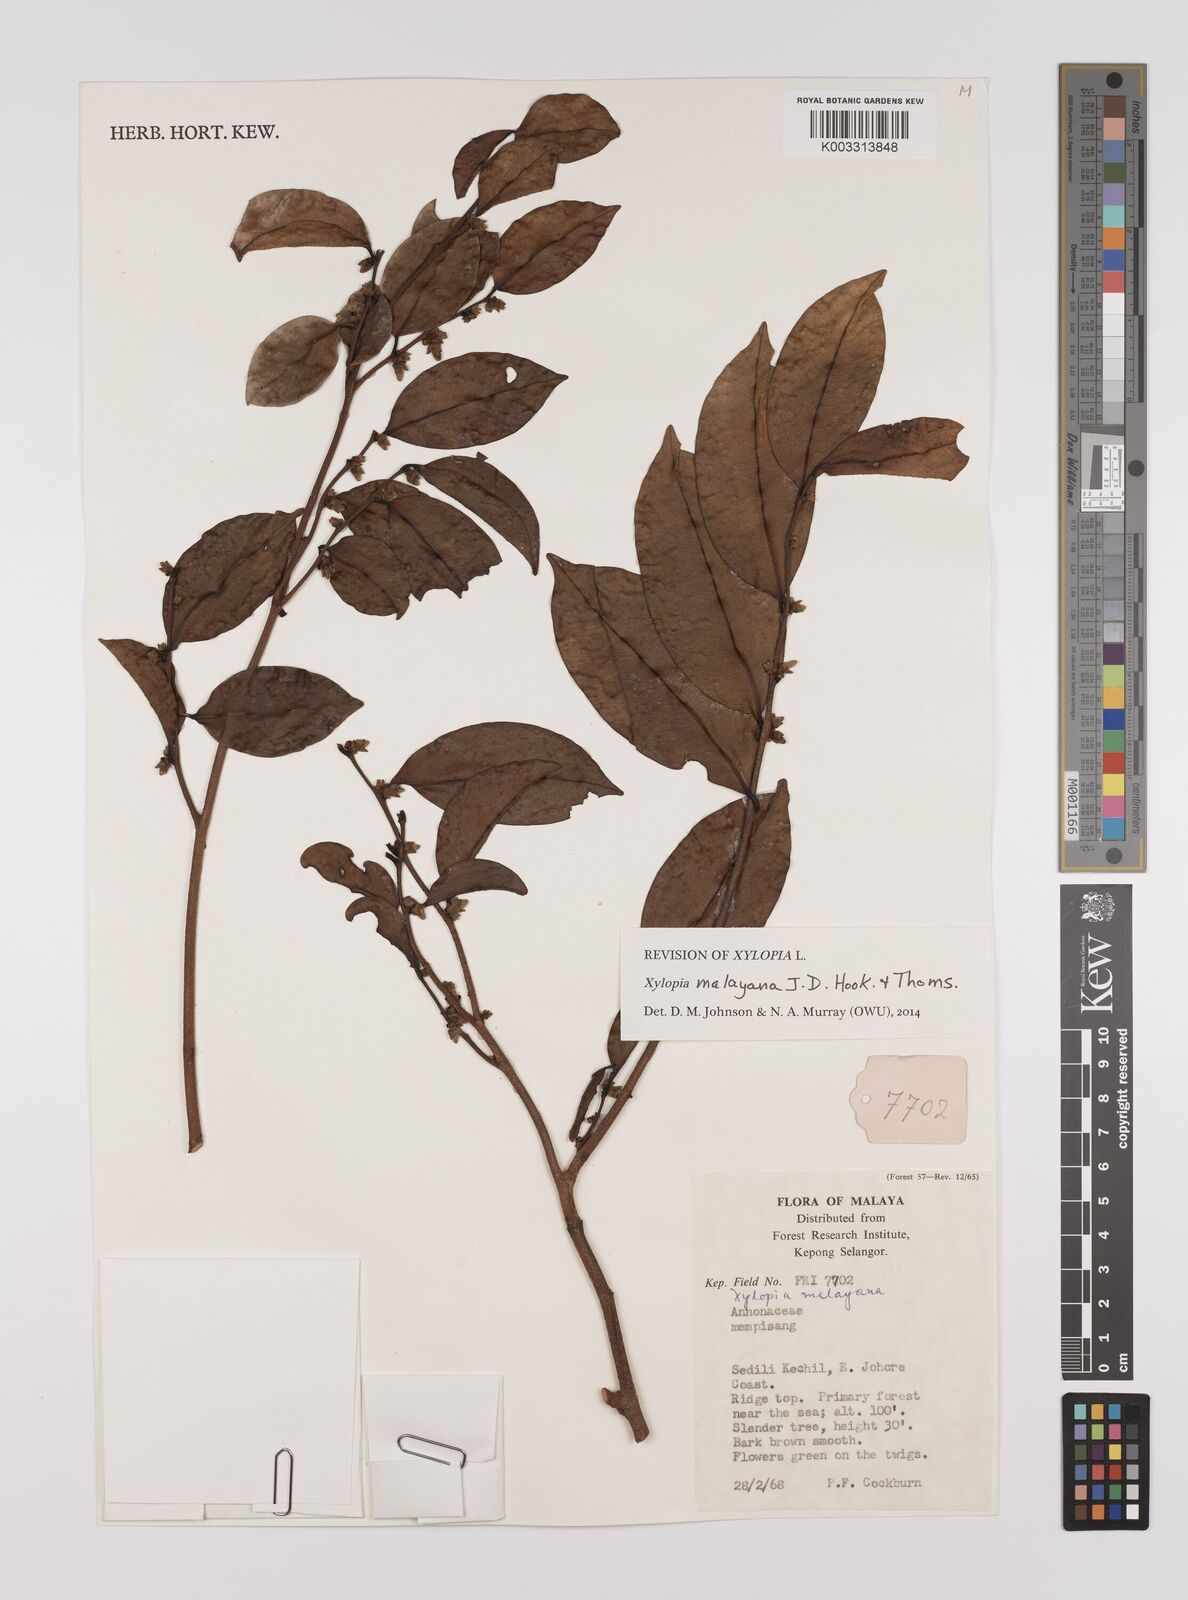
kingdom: Plantae
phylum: Tracheophyta
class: Magnoliopsida
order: Magnoliales
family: Annonaceae
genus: Xylopia
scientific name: Xylopia malayana
